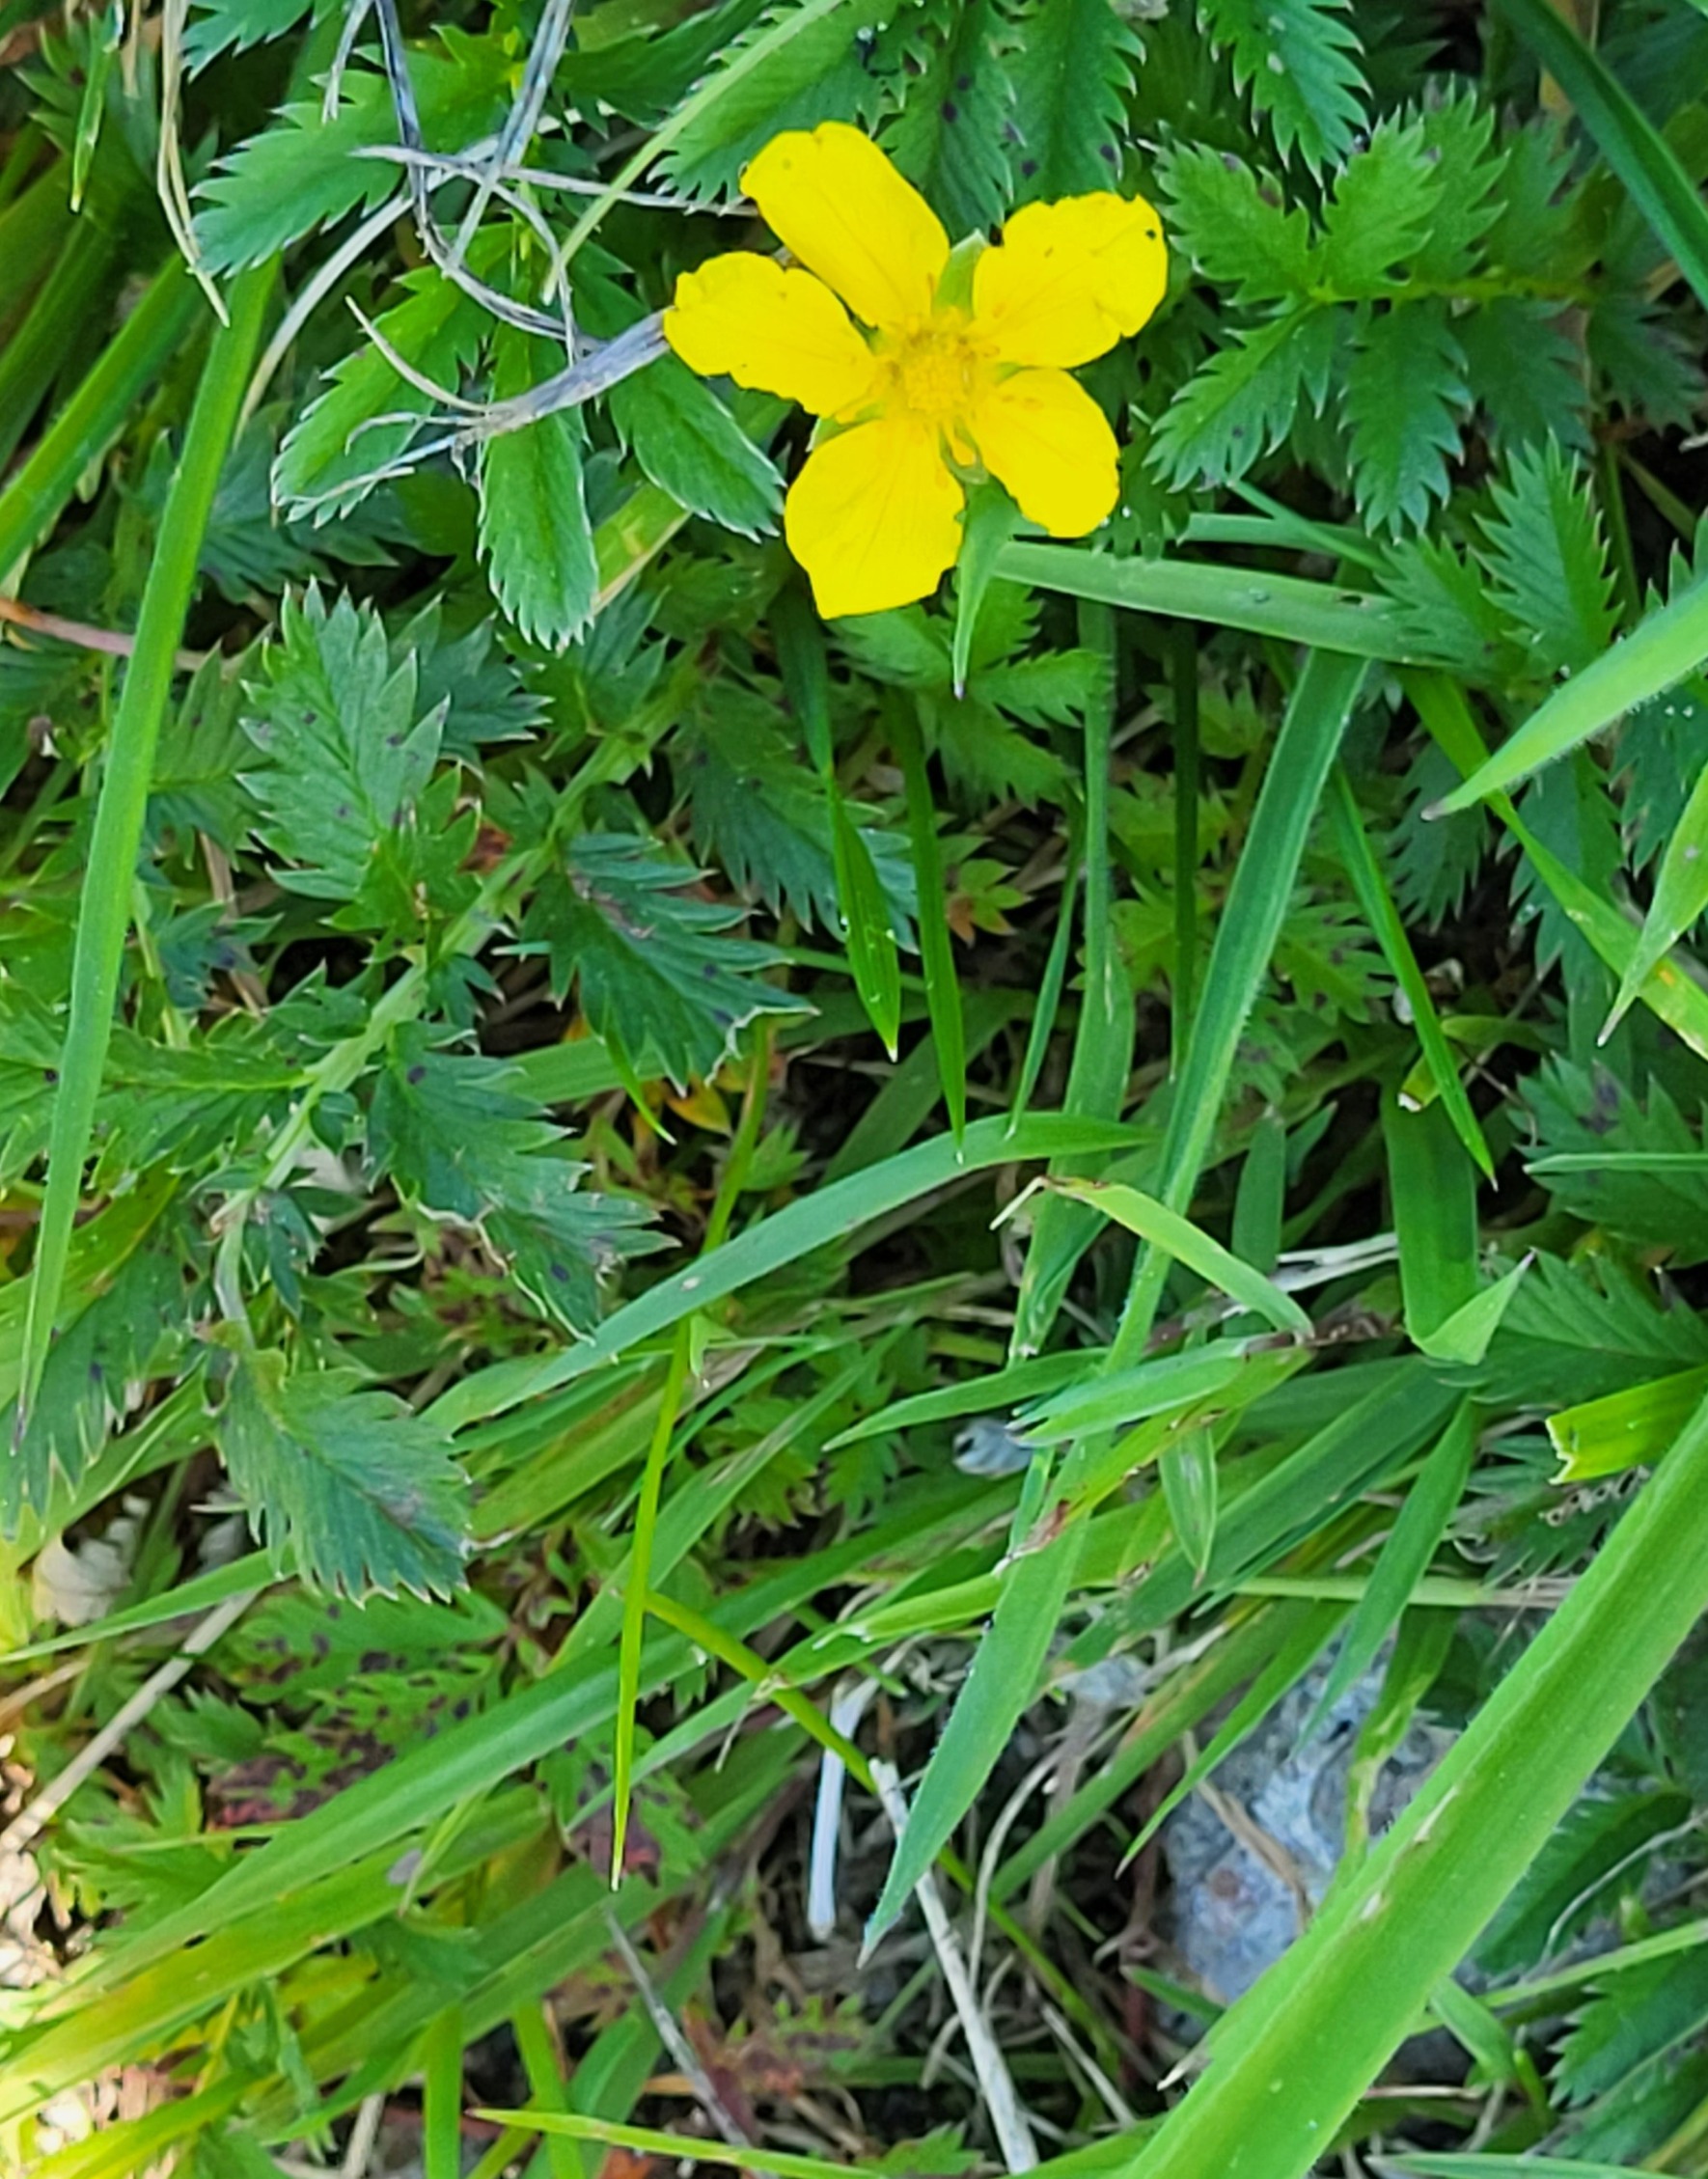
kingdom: Plantae
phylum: Tracheophyta
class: Magnoliopsida
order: Rosales
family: Rosaceae
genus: Argentina
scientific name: Argentina anserina
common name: Gåsepotentil
